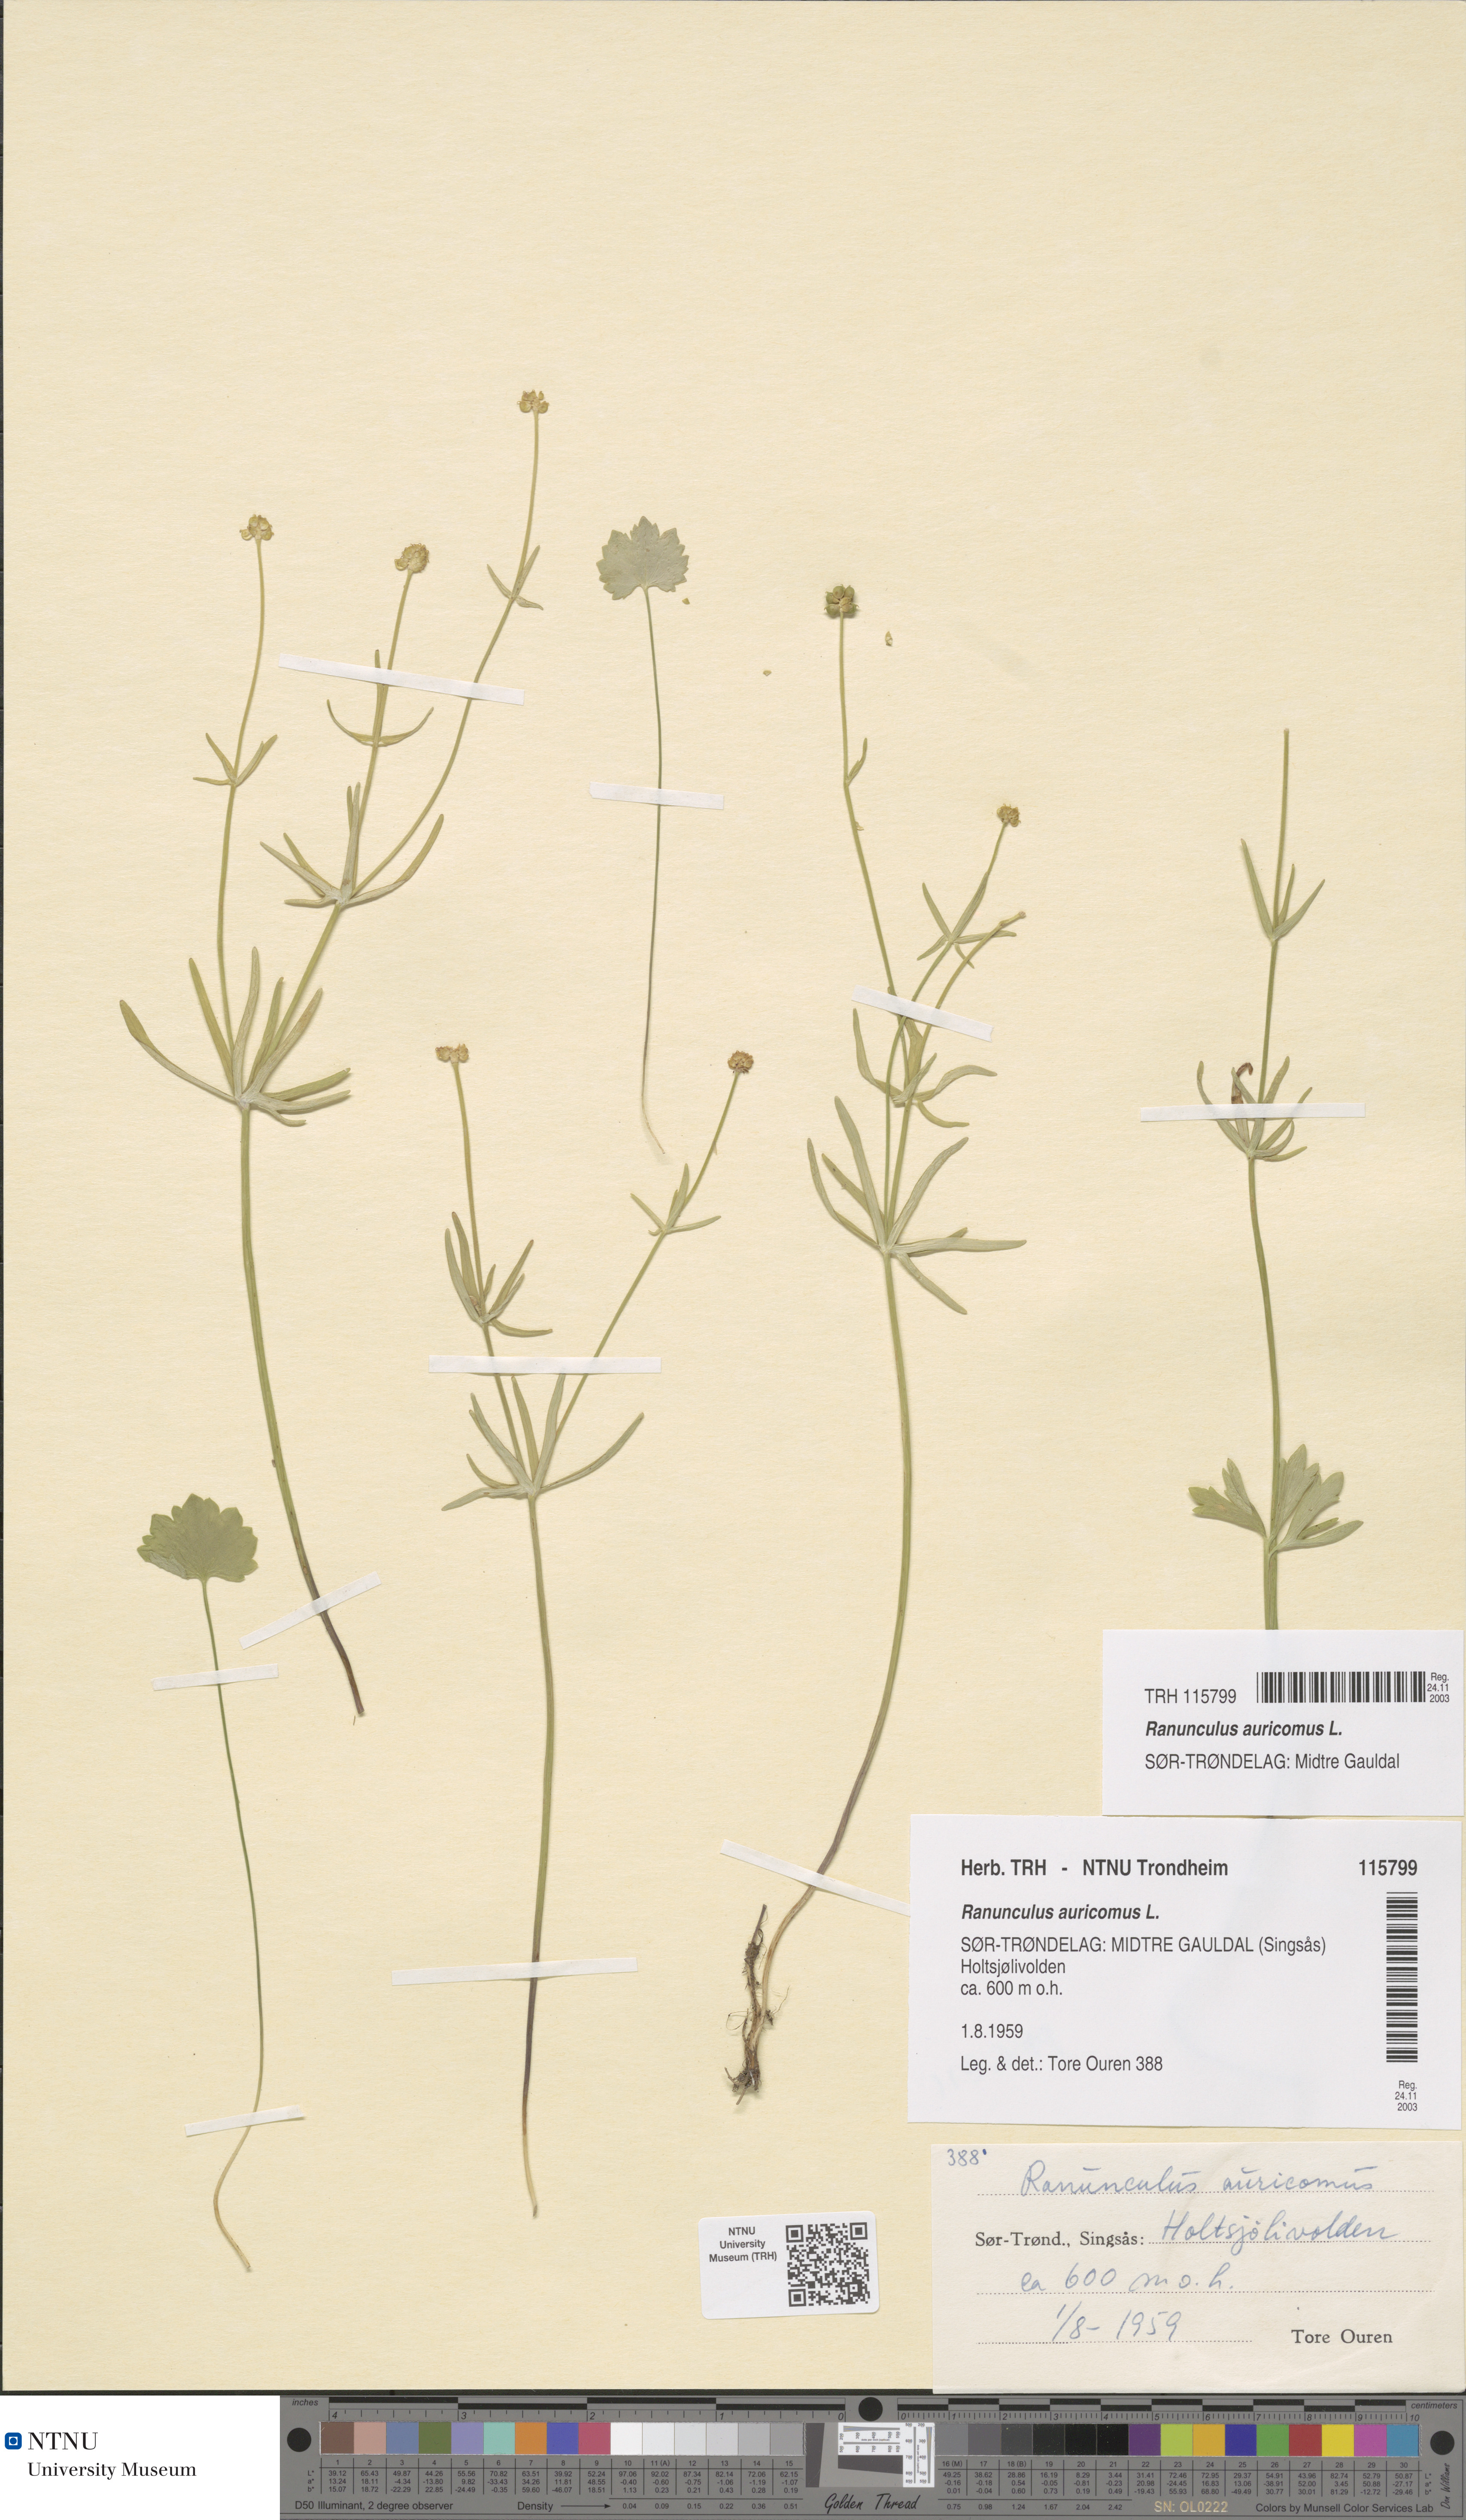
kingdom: Plantae
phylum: Tracheophyta
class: Magnoliopsida
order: Ranunculales
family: Ranunculaceae
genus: Ranunculus
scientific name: Ranunculus auricomus
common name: Goldilocks buttercup
